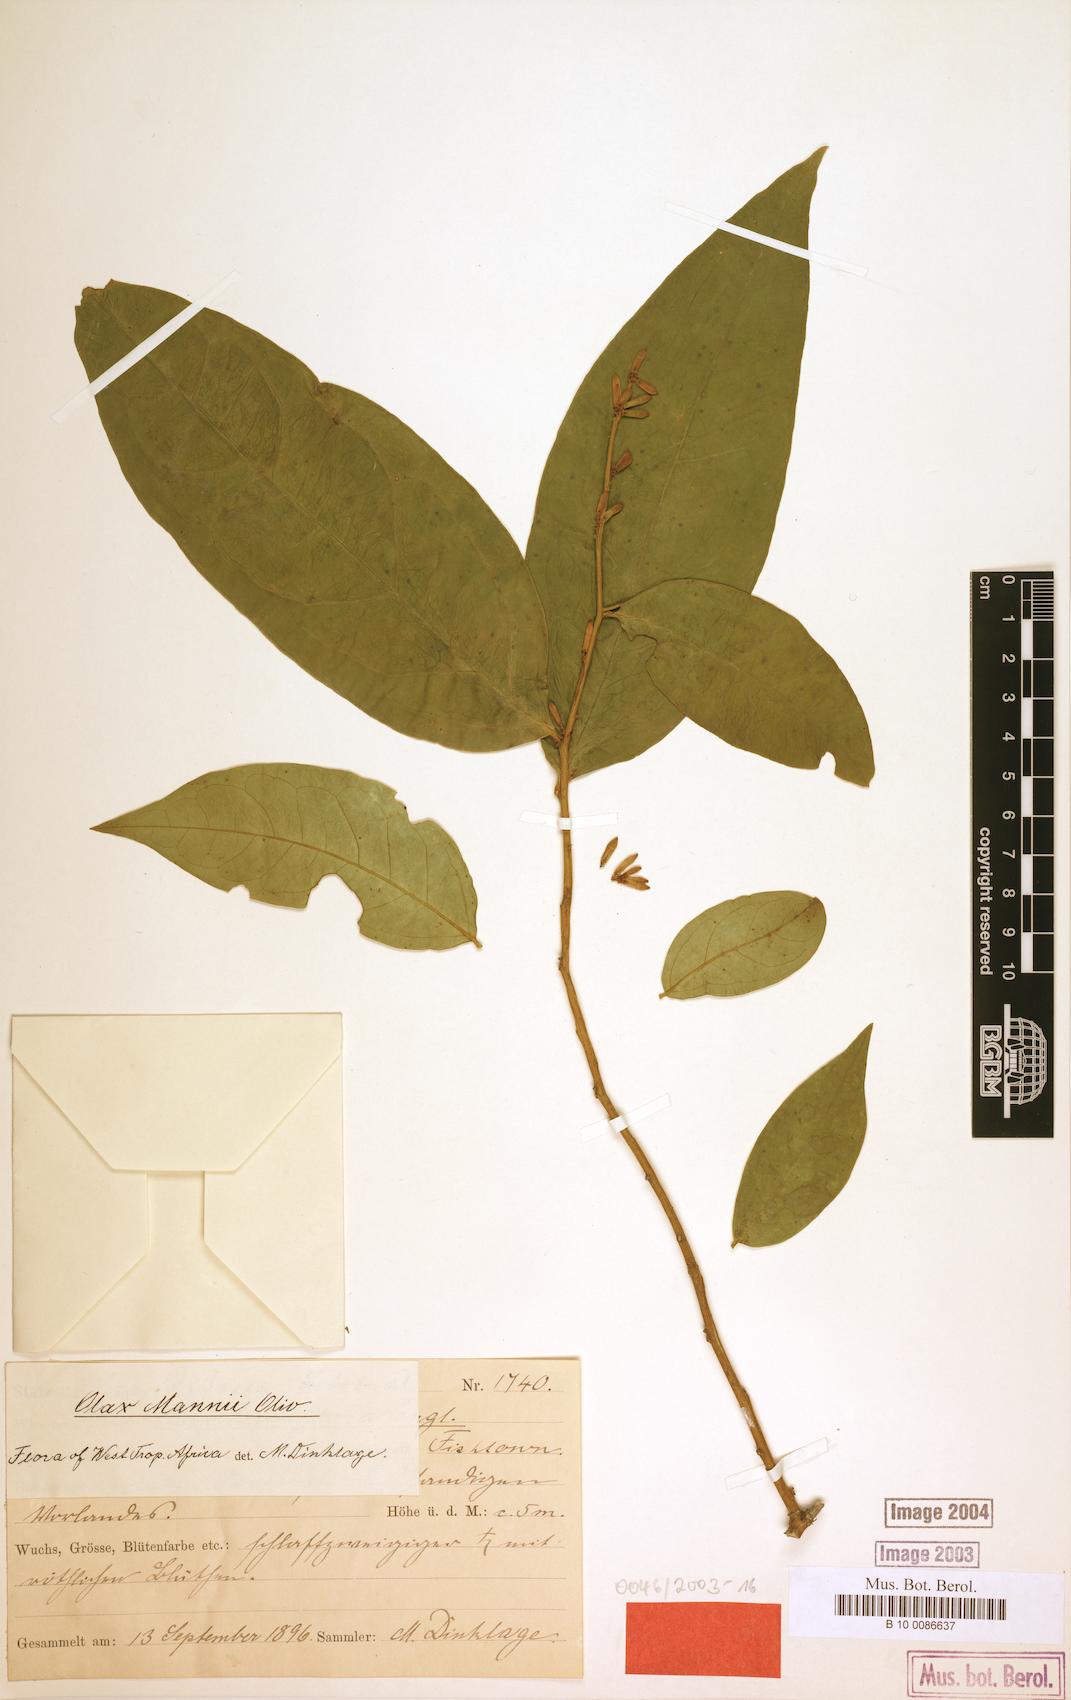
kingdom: Plantae
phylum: Tracheophyta
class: Magnoliopsida
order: Santalales
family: Olacaceae
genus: Olax
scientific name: Olax mannii
